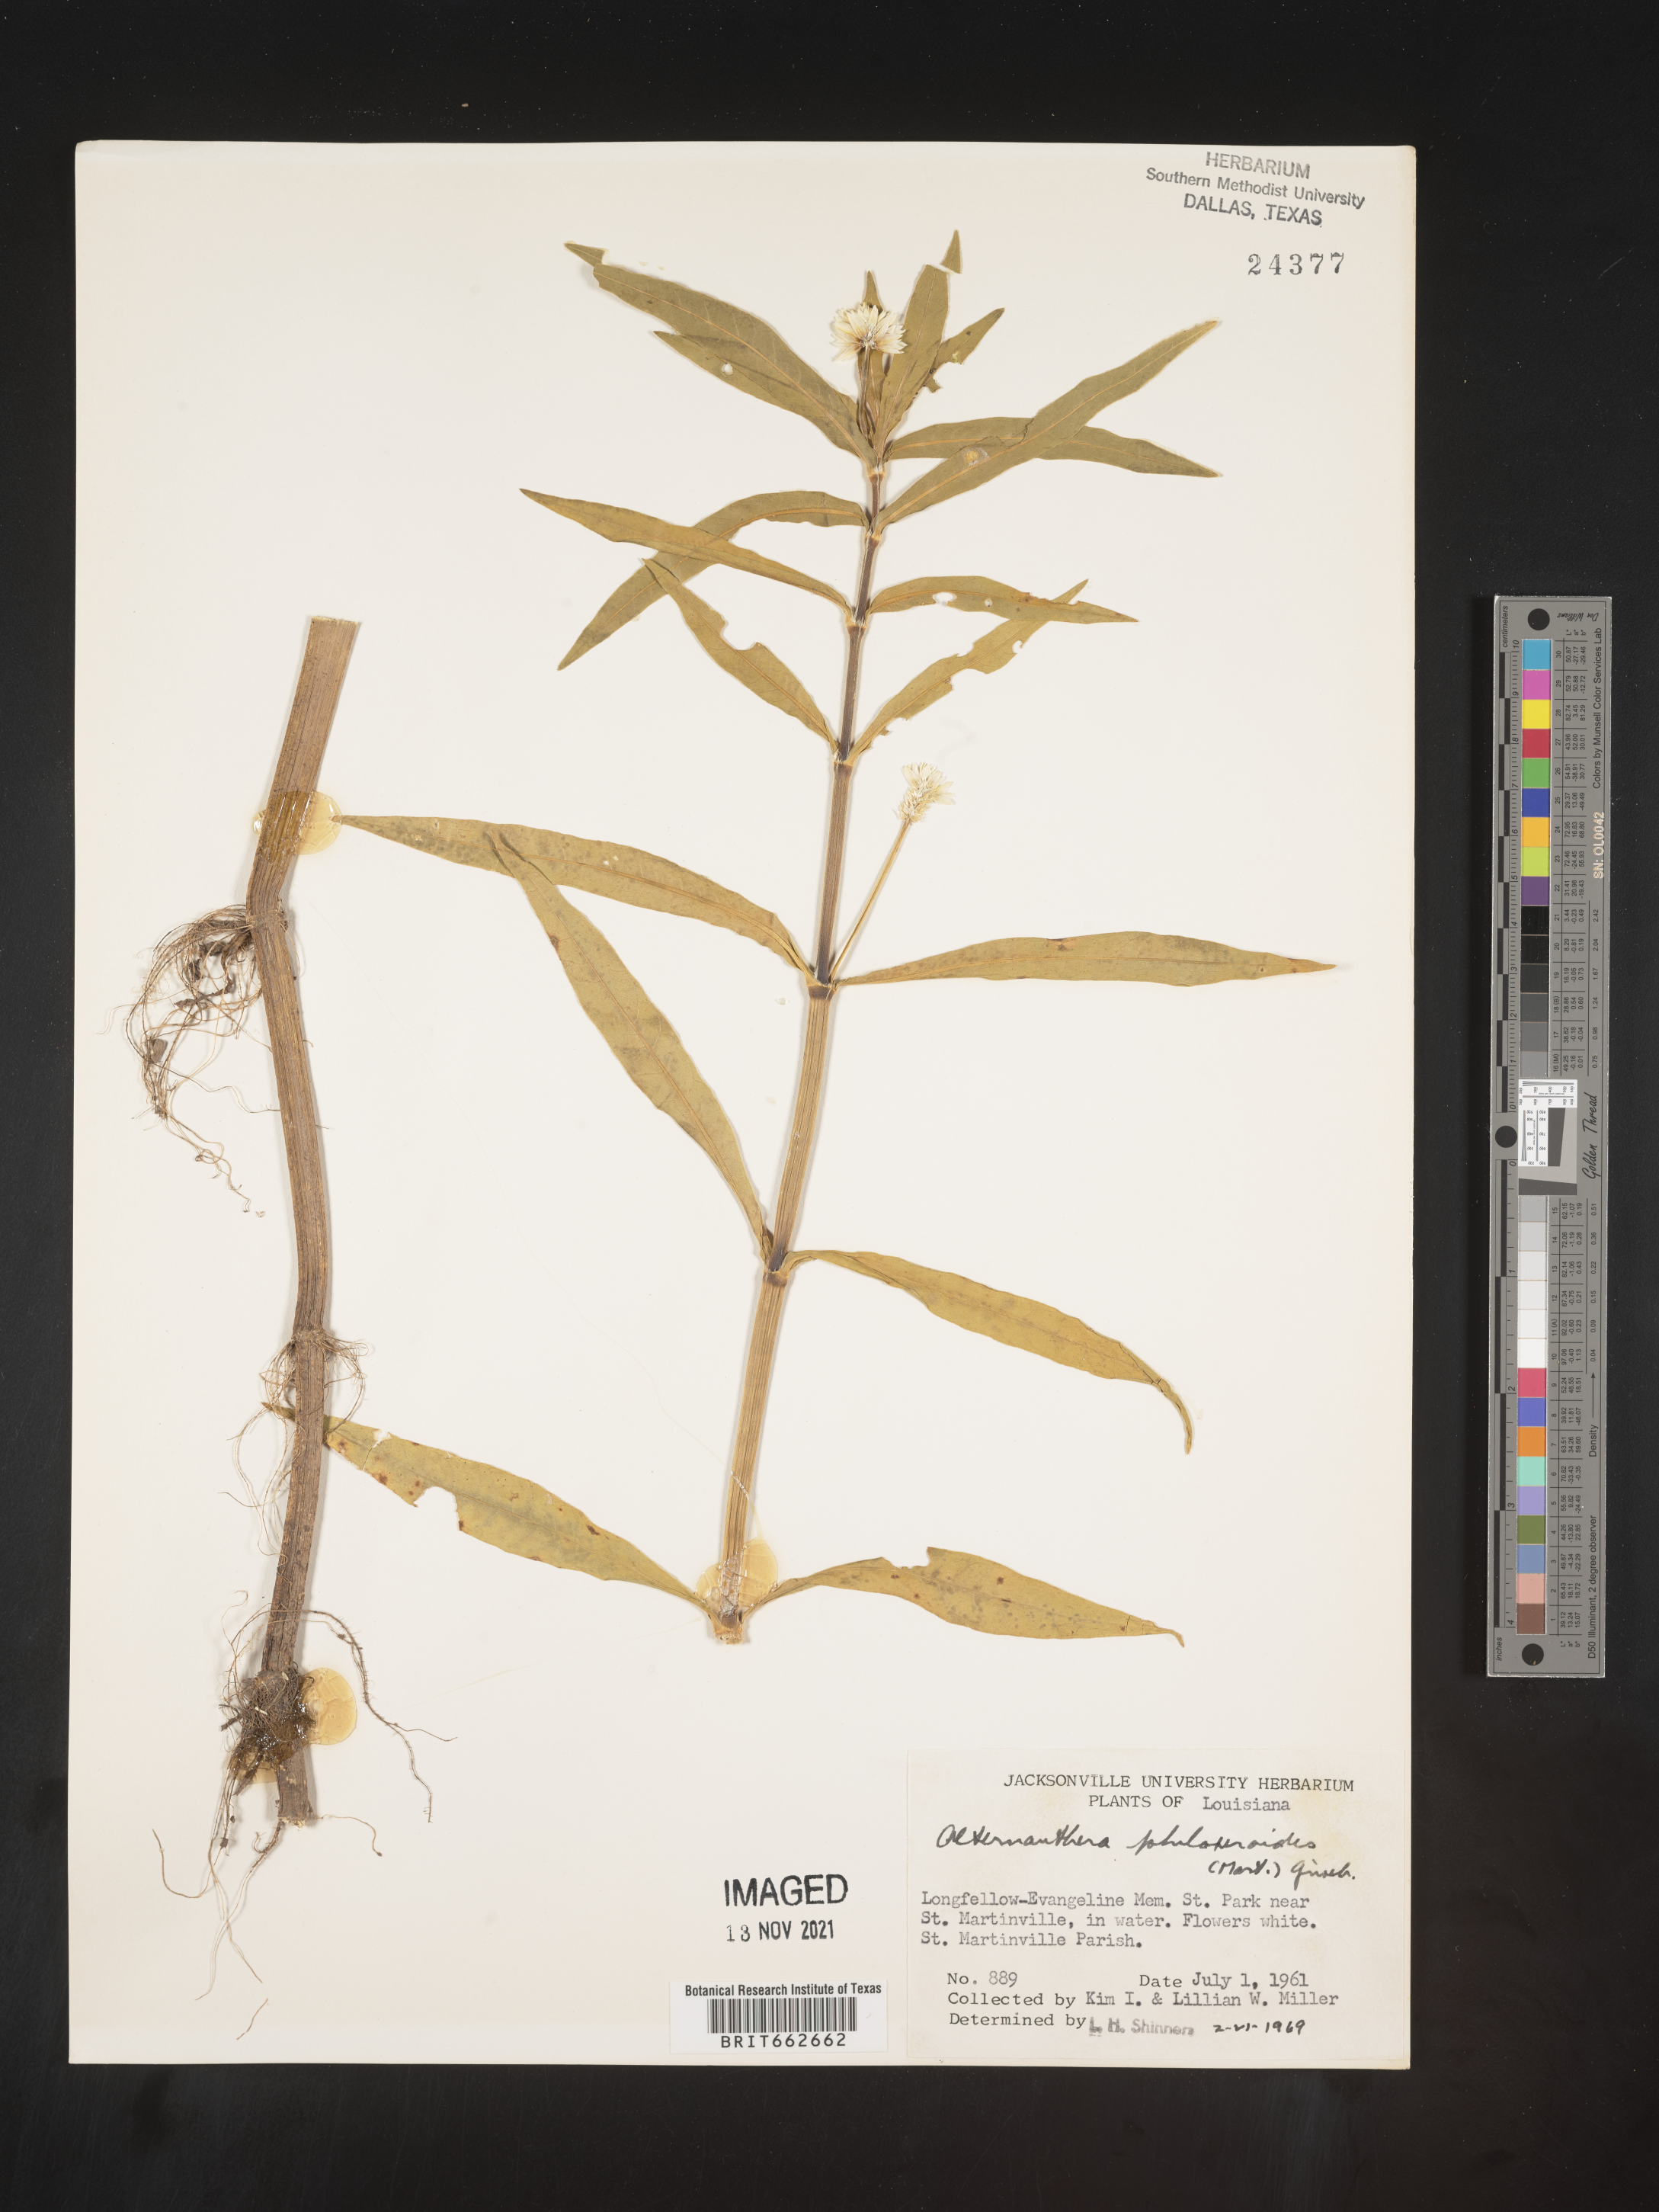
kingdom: Plantae
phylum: Tracheophyta
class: Magnoliopsida
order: Caryophyllales
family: Amaranthaceae
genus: Alternanthera
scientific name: Alternanthera philoxeroides
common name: Alligatorweed
